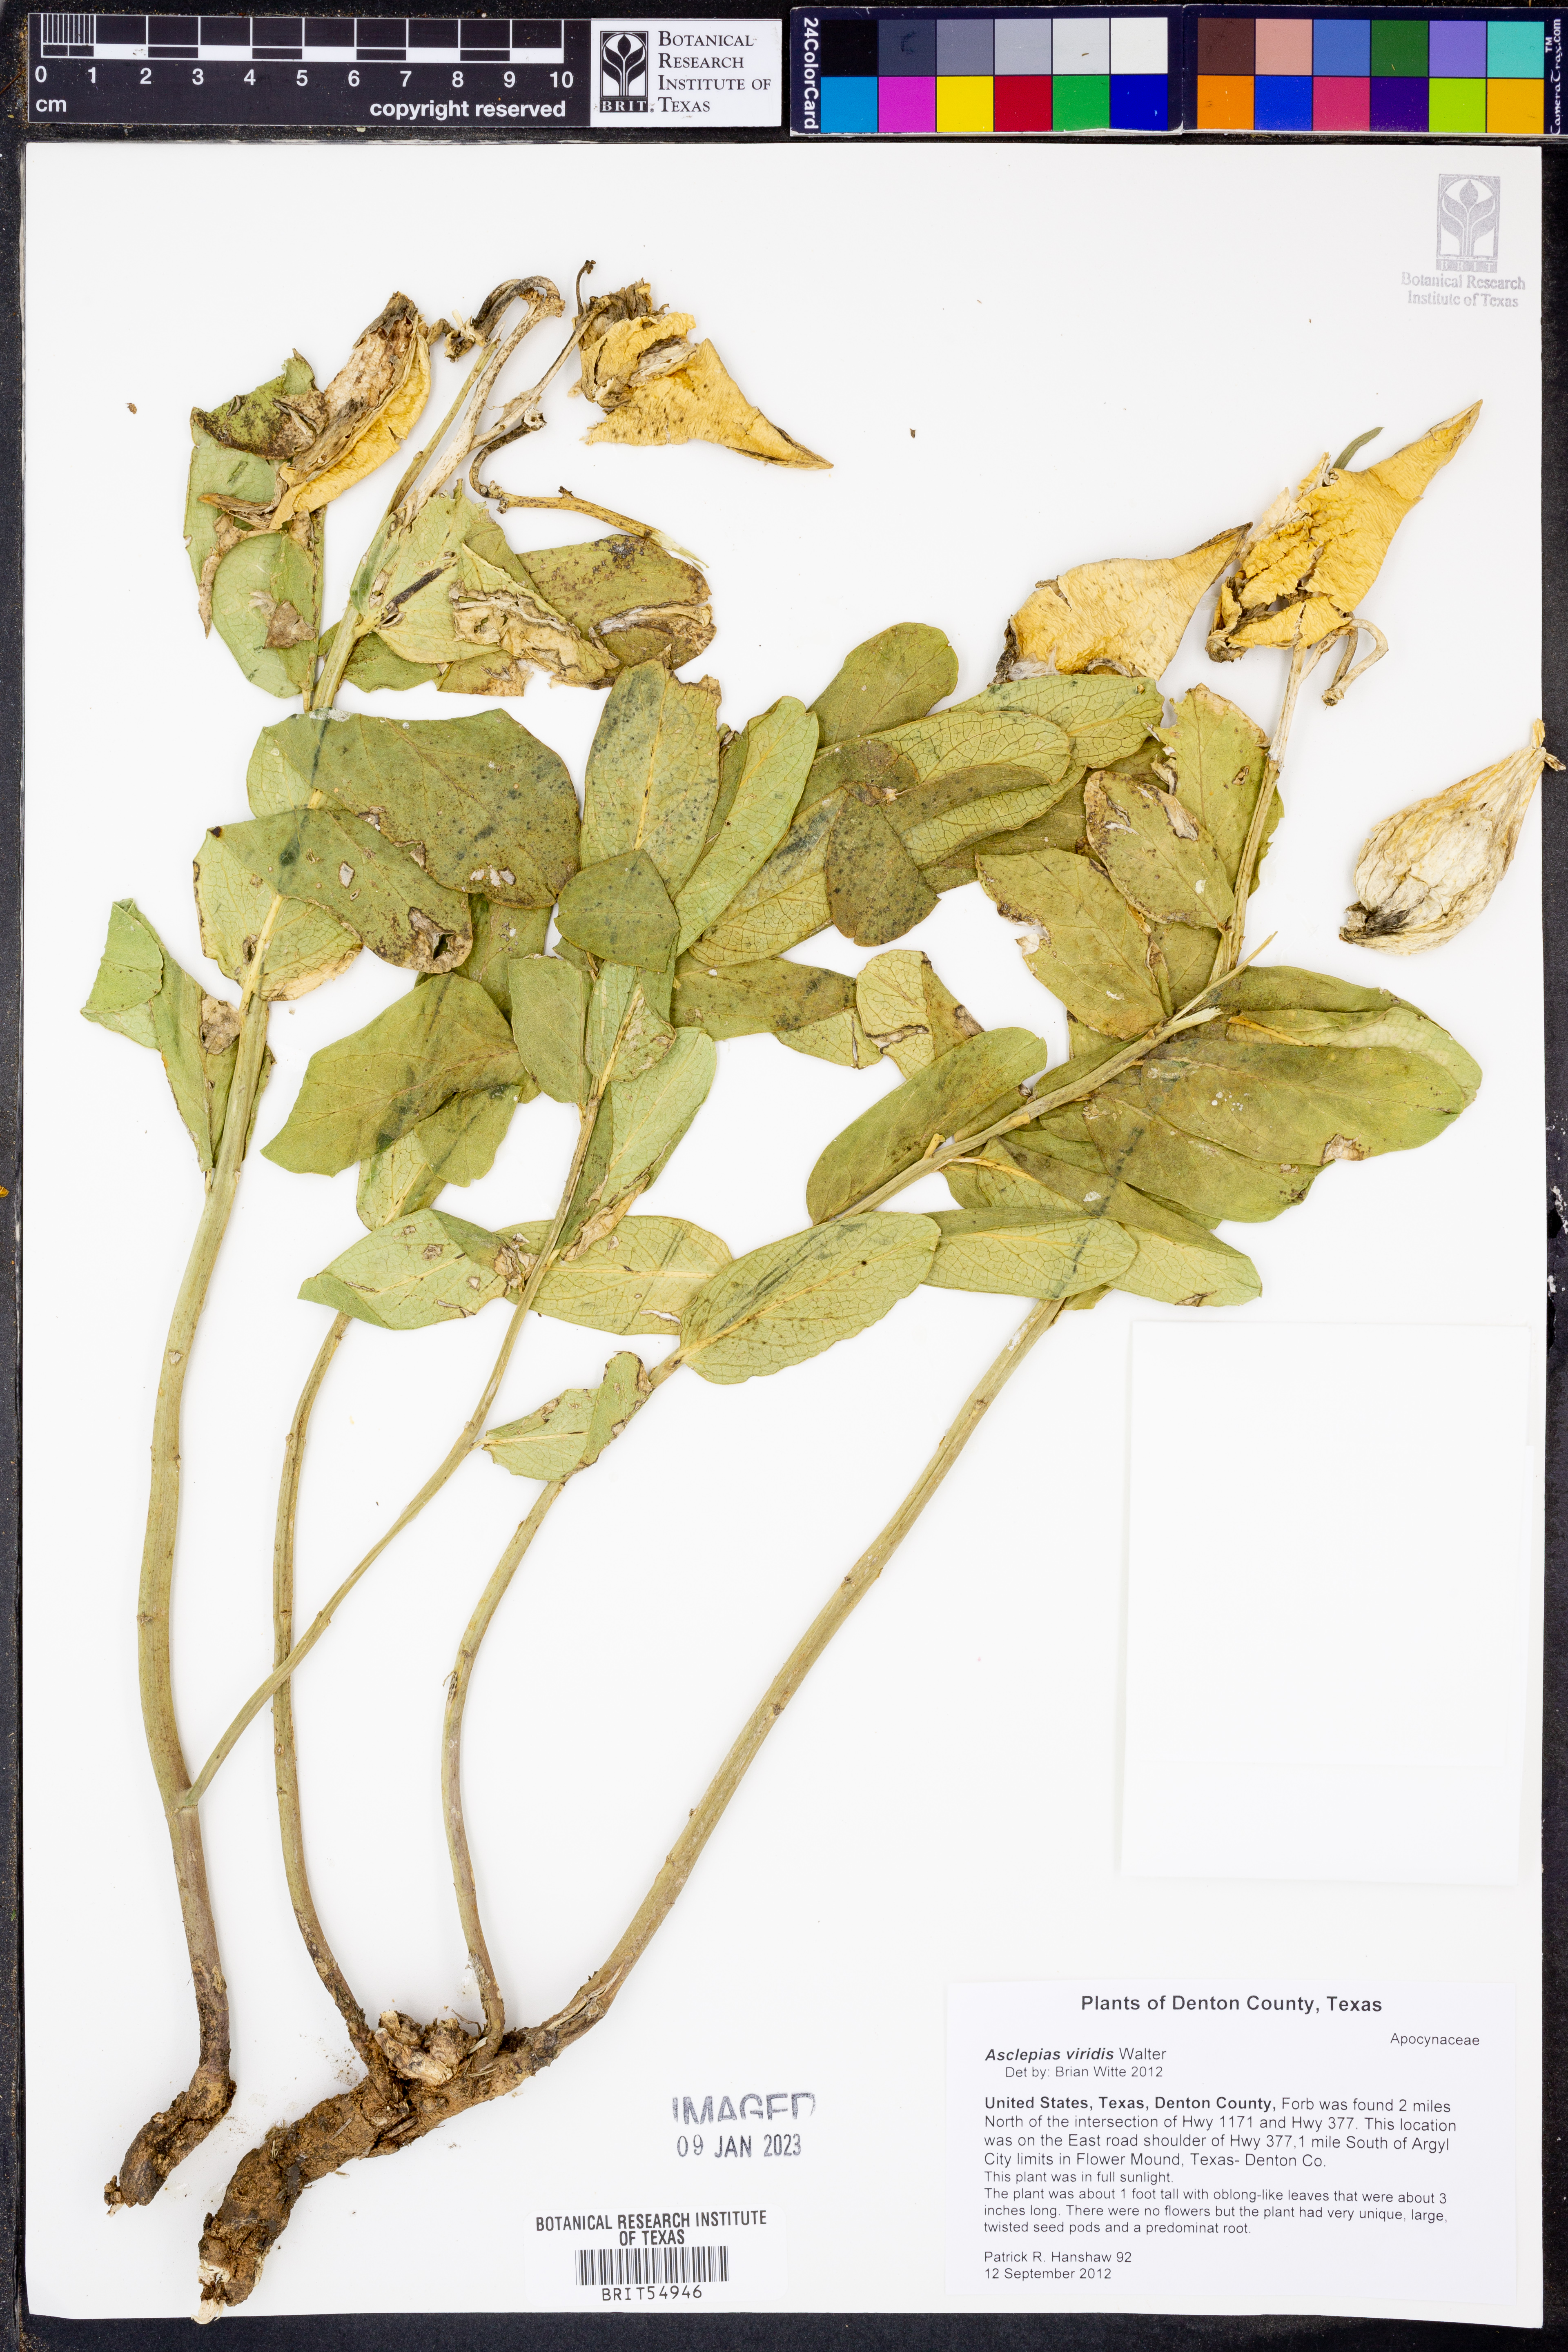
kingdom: Plantae
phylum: Tracheophyta
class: Magnoliopsida
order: Gentianales
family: Apocynaceae
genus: Asclepias
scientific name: Asclepias viridis
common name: Antelope-horns
